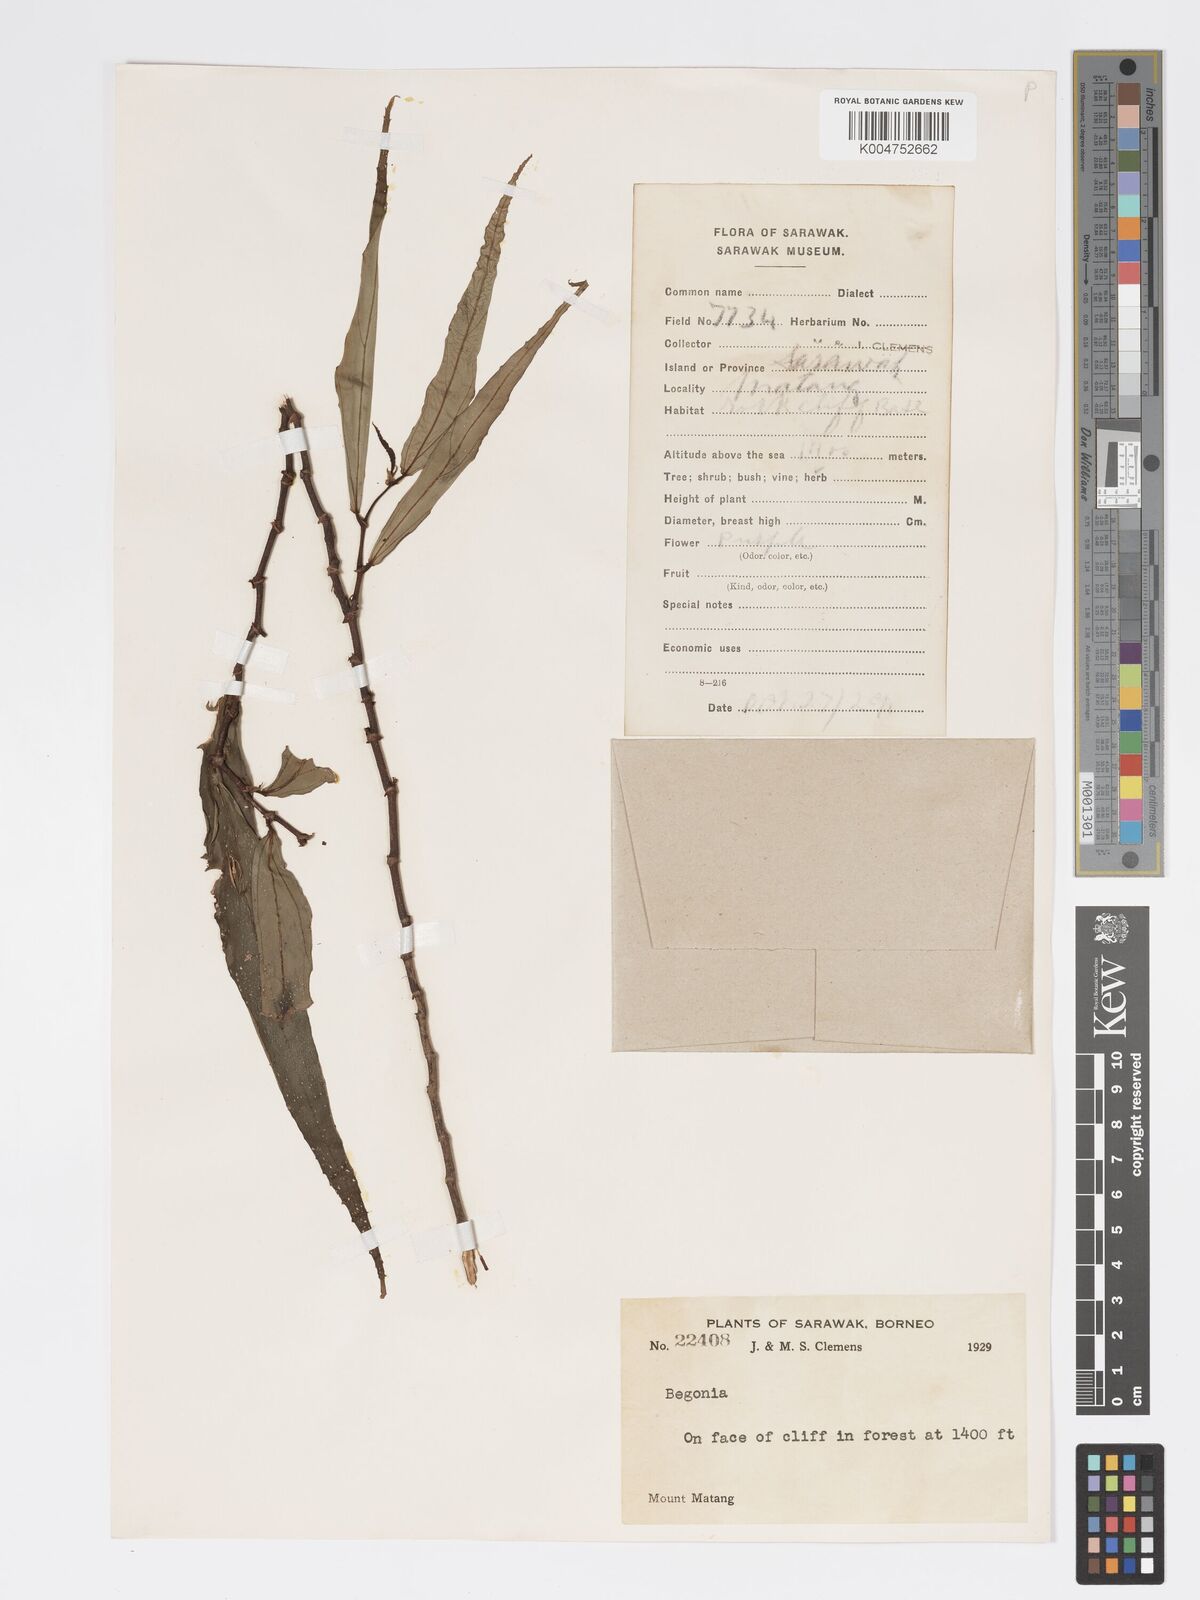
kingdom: Plantae
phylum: Tracheophyta
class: Magnoliopsida
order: Cucurbitales
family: Begoniaceae
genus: Begonia
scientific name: Begonia xiphophylla
